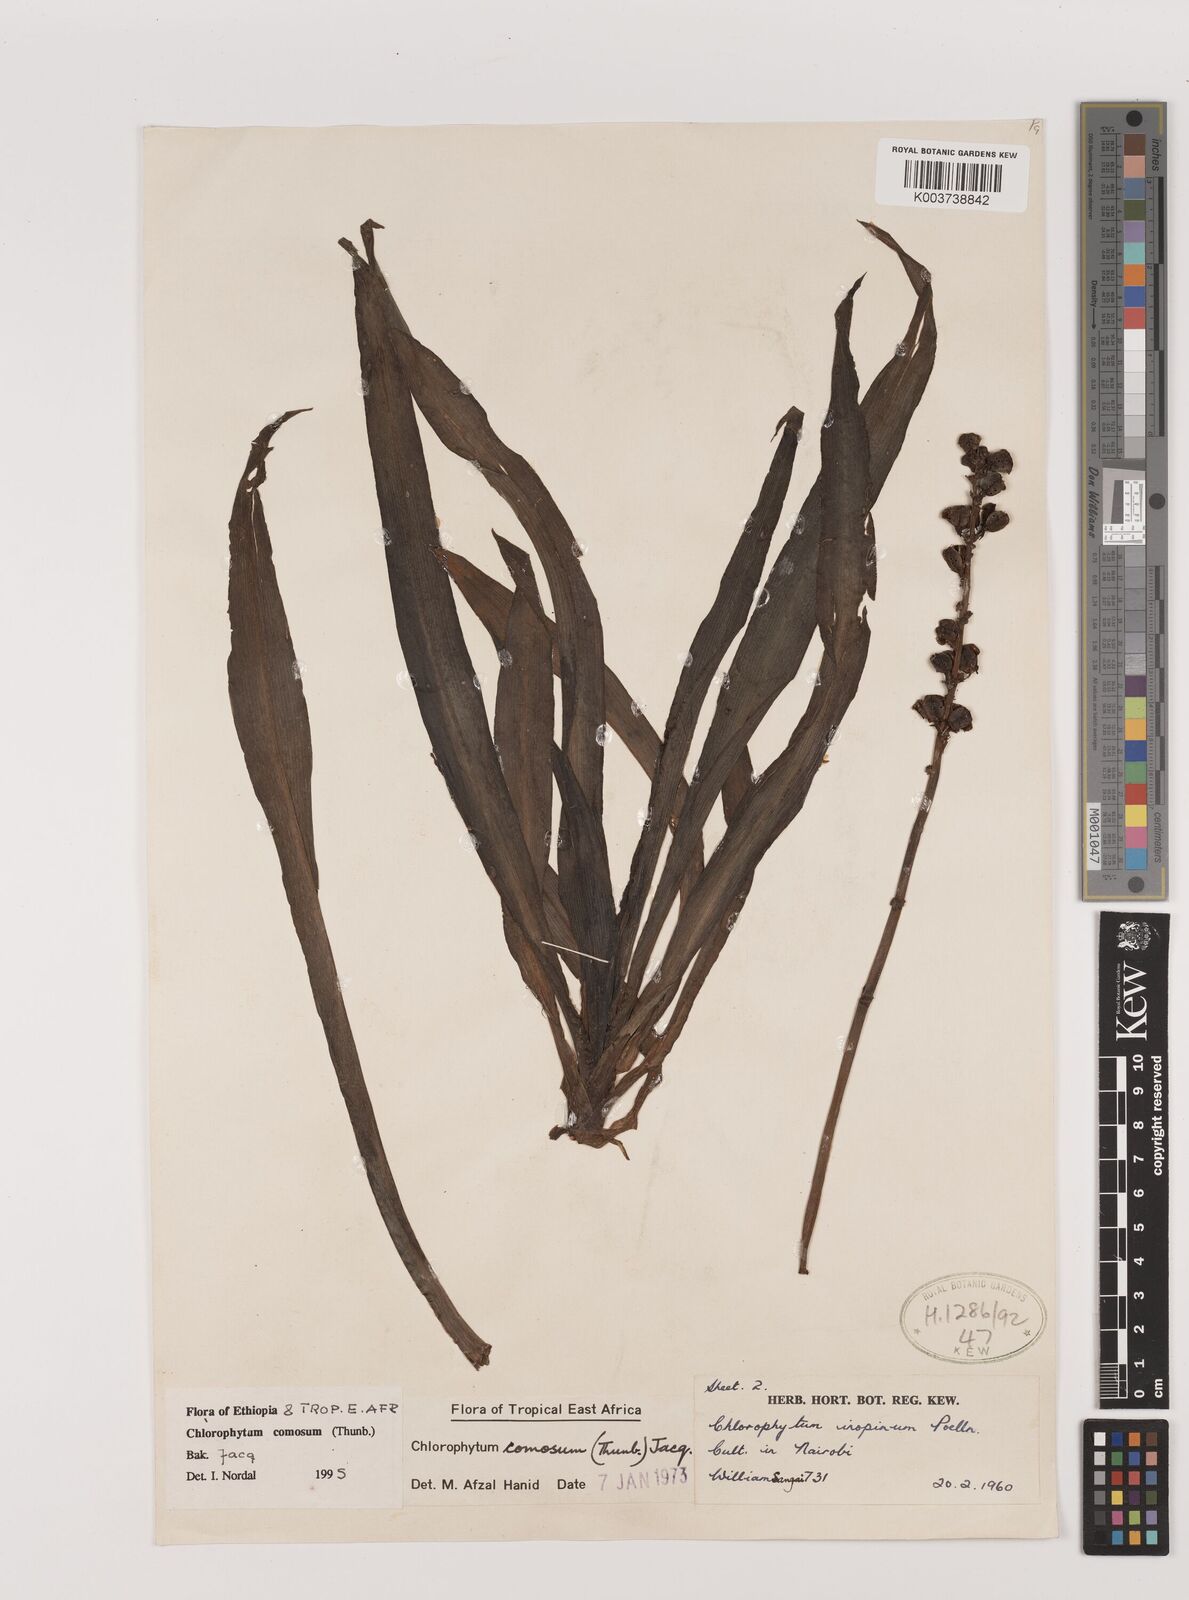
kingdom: Plantae
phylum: Tracheophyta
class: Liliopsida
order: Asparagales
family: Asparagaceae
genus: Chlorophytum
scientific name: Chlorophytum comosum
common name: Spider plant
